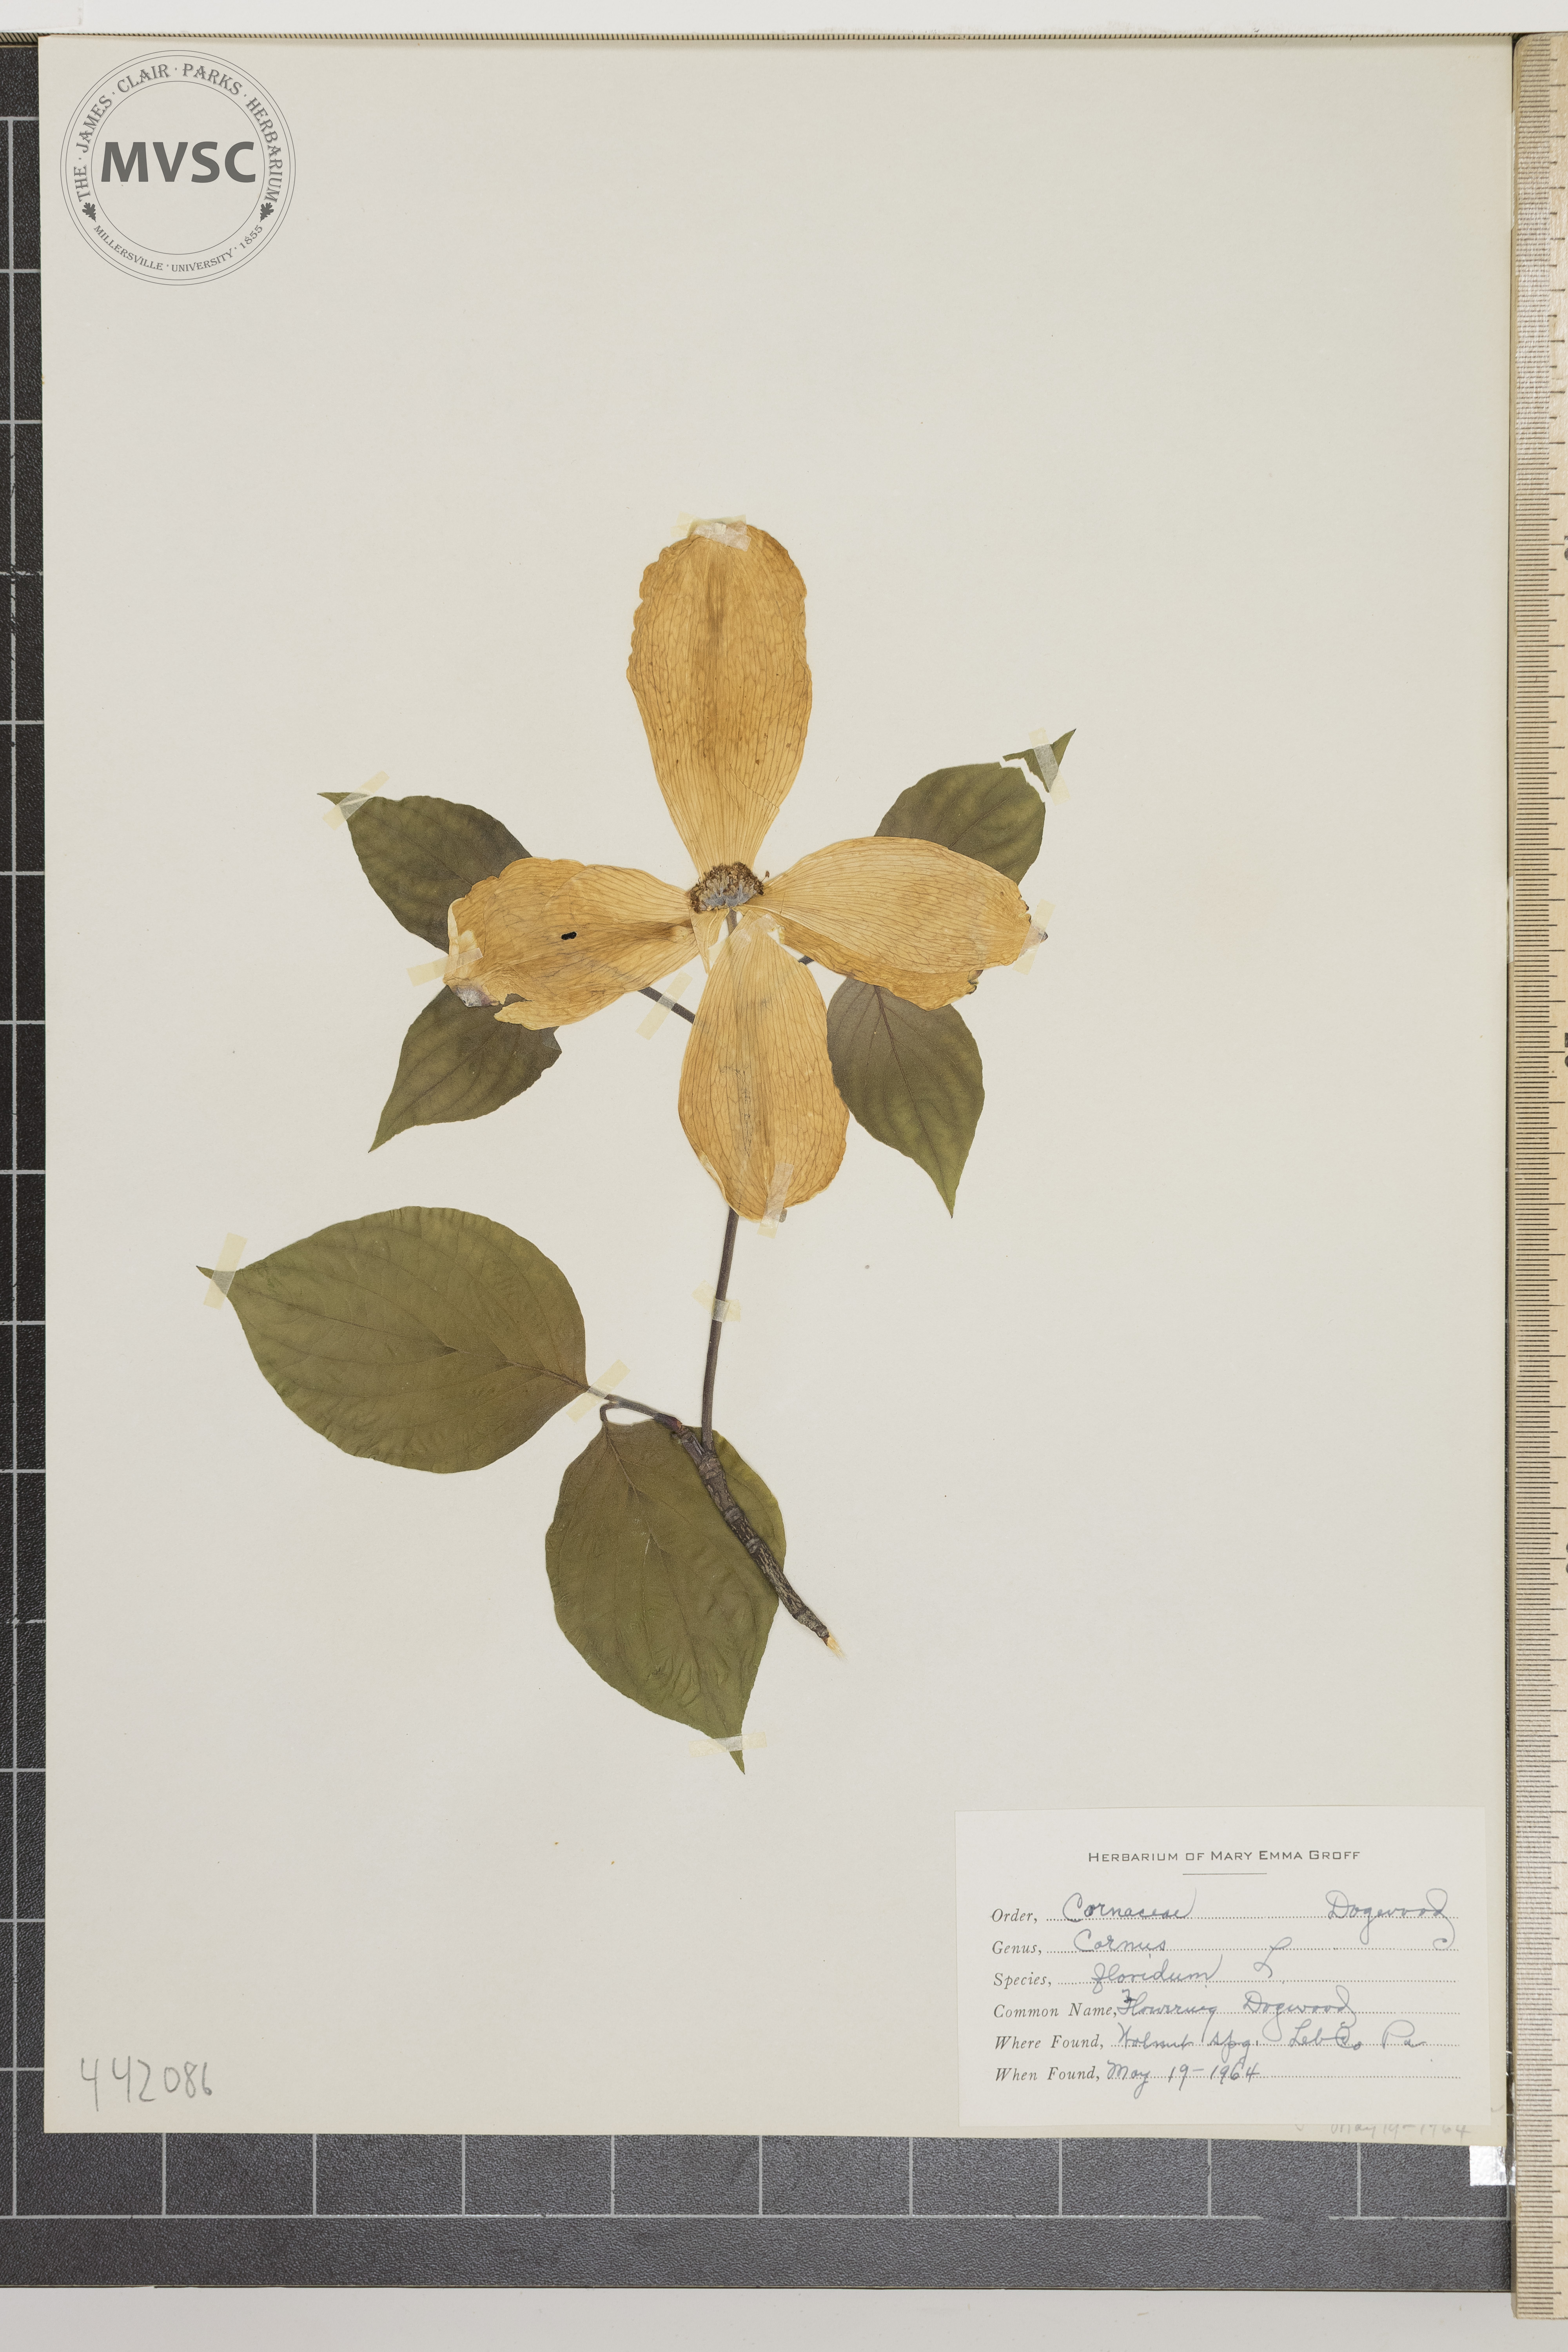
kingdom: Plantae
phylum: Tracheophyta
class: Magnoliopsida
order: Cornales
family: Cornaceae
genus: Cornus
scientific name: Cornus florida
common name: Flowering dogwood
